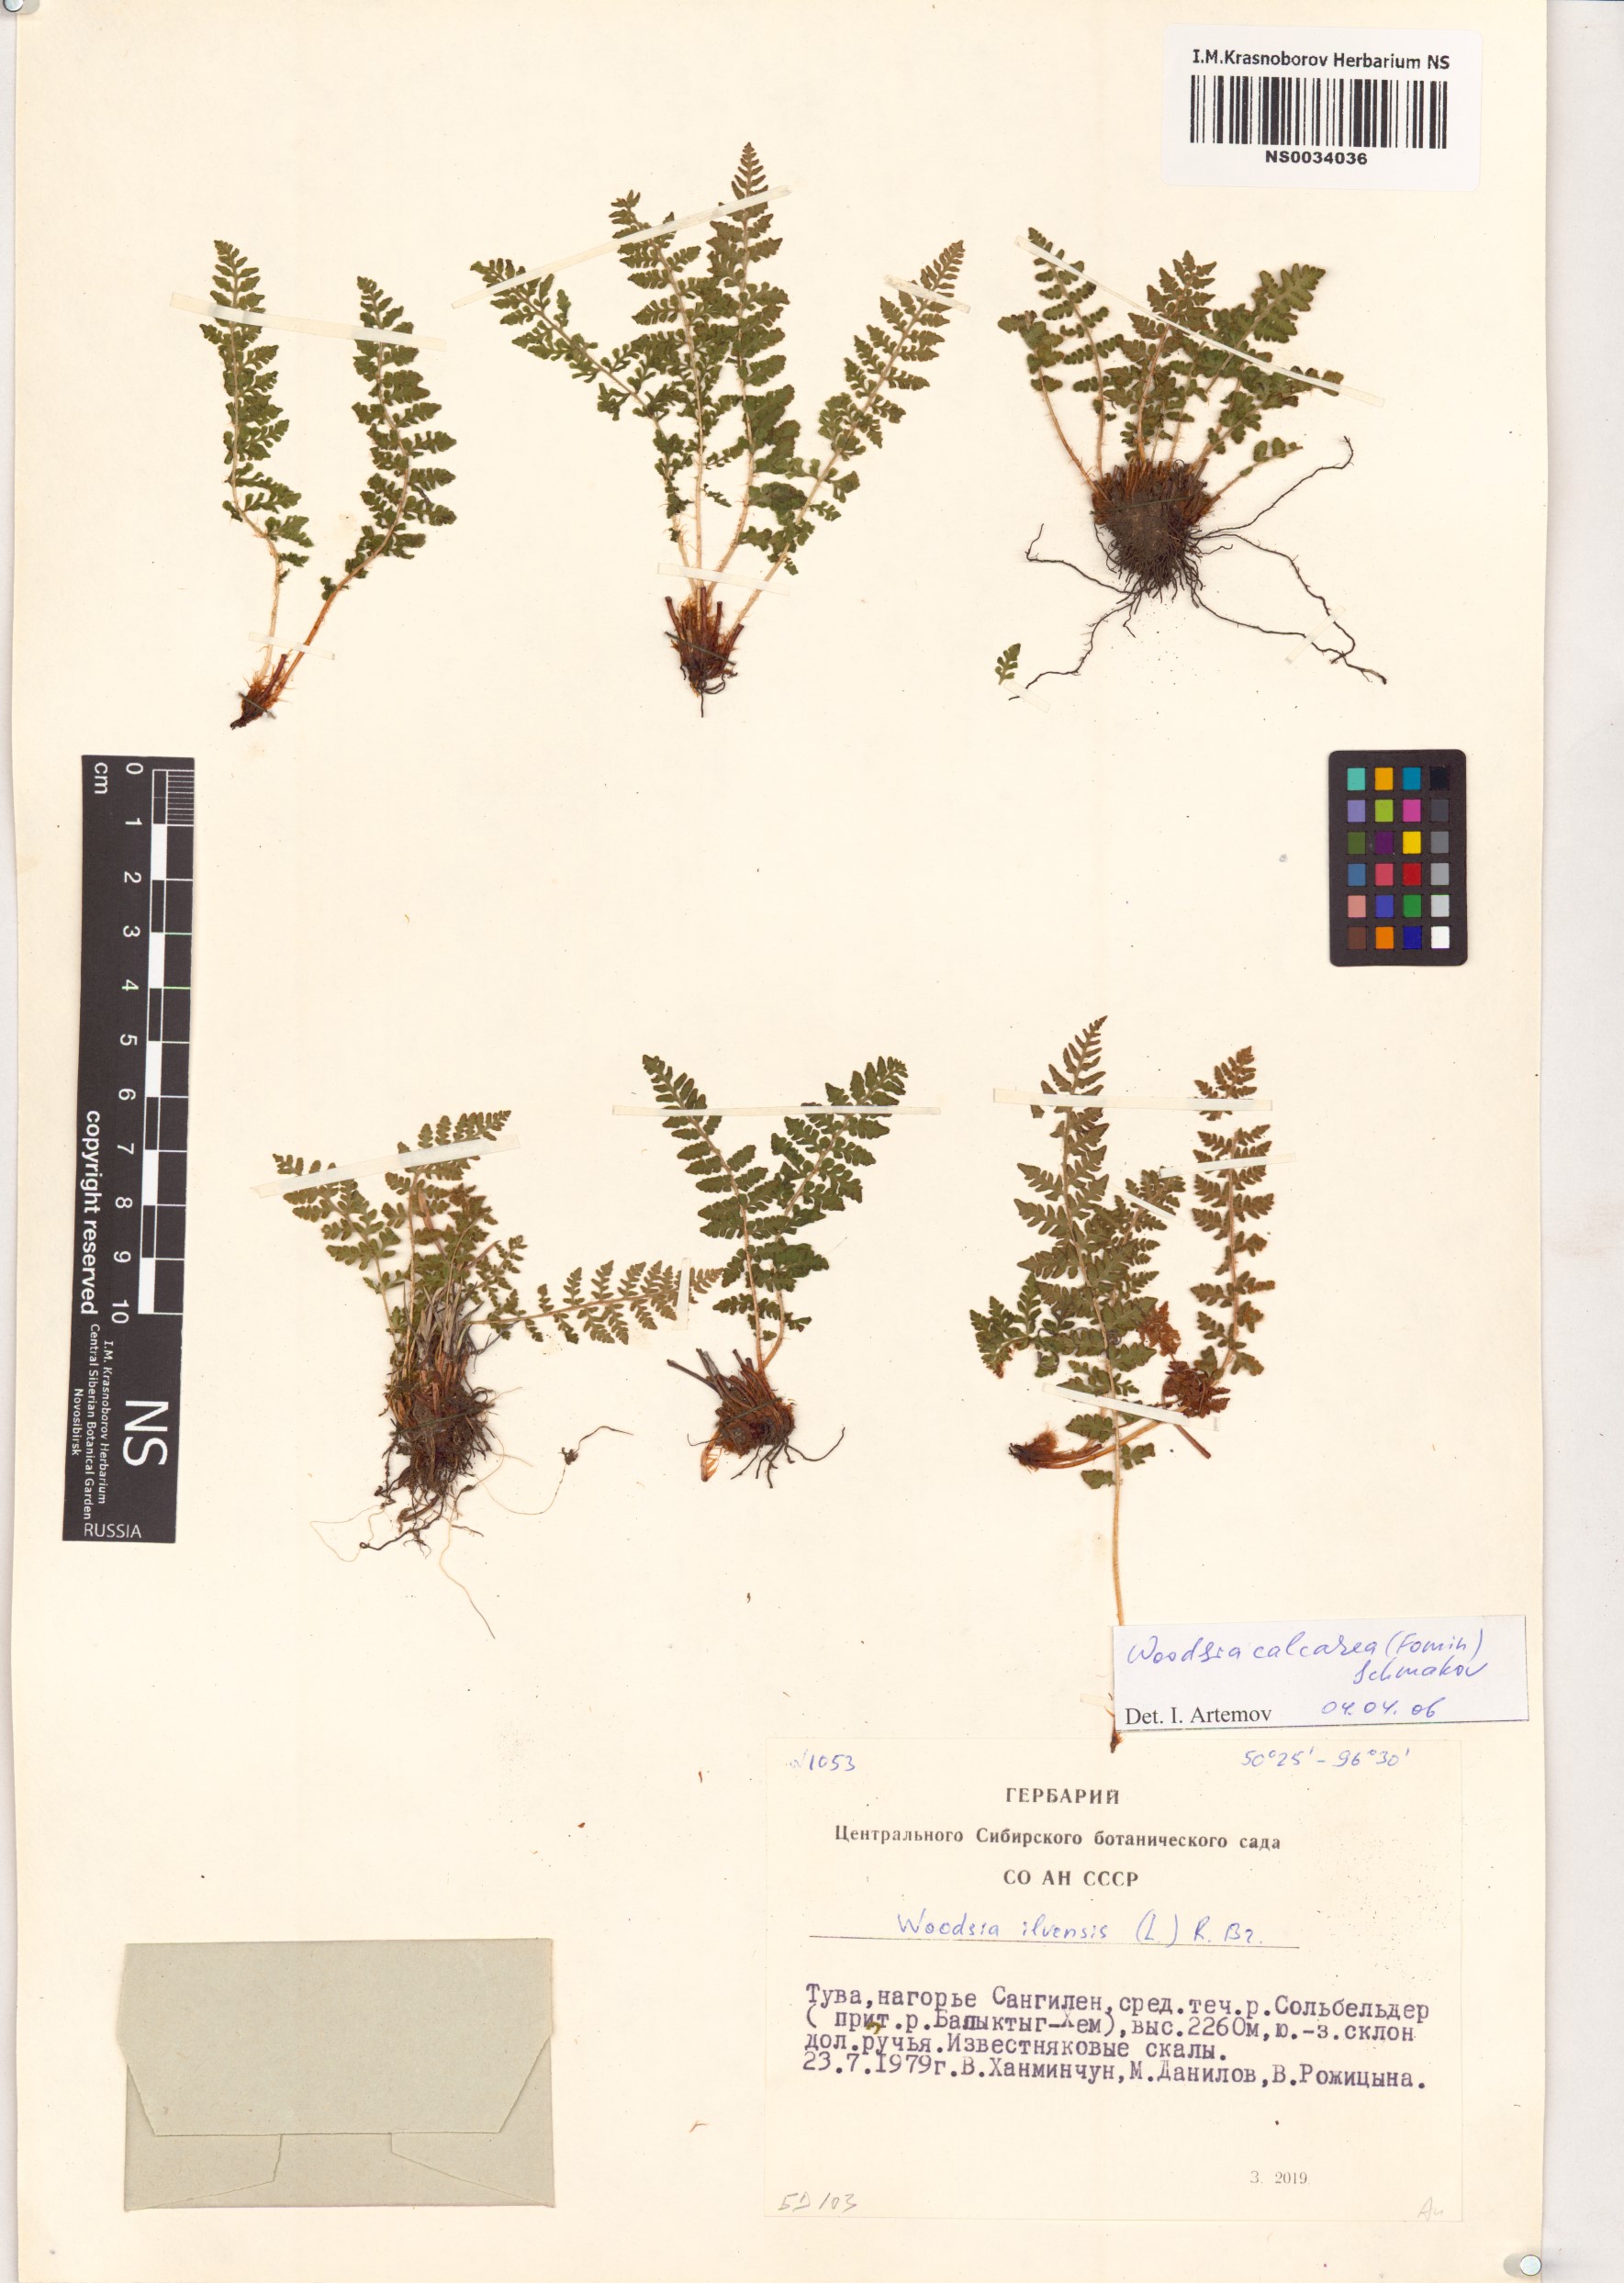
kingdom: Plantae
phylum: Tracheophyta
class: Polypodiopsida
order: Polypodiales
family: Woodsiaceae
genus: Woodsia
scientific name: Woodsia calcarea
